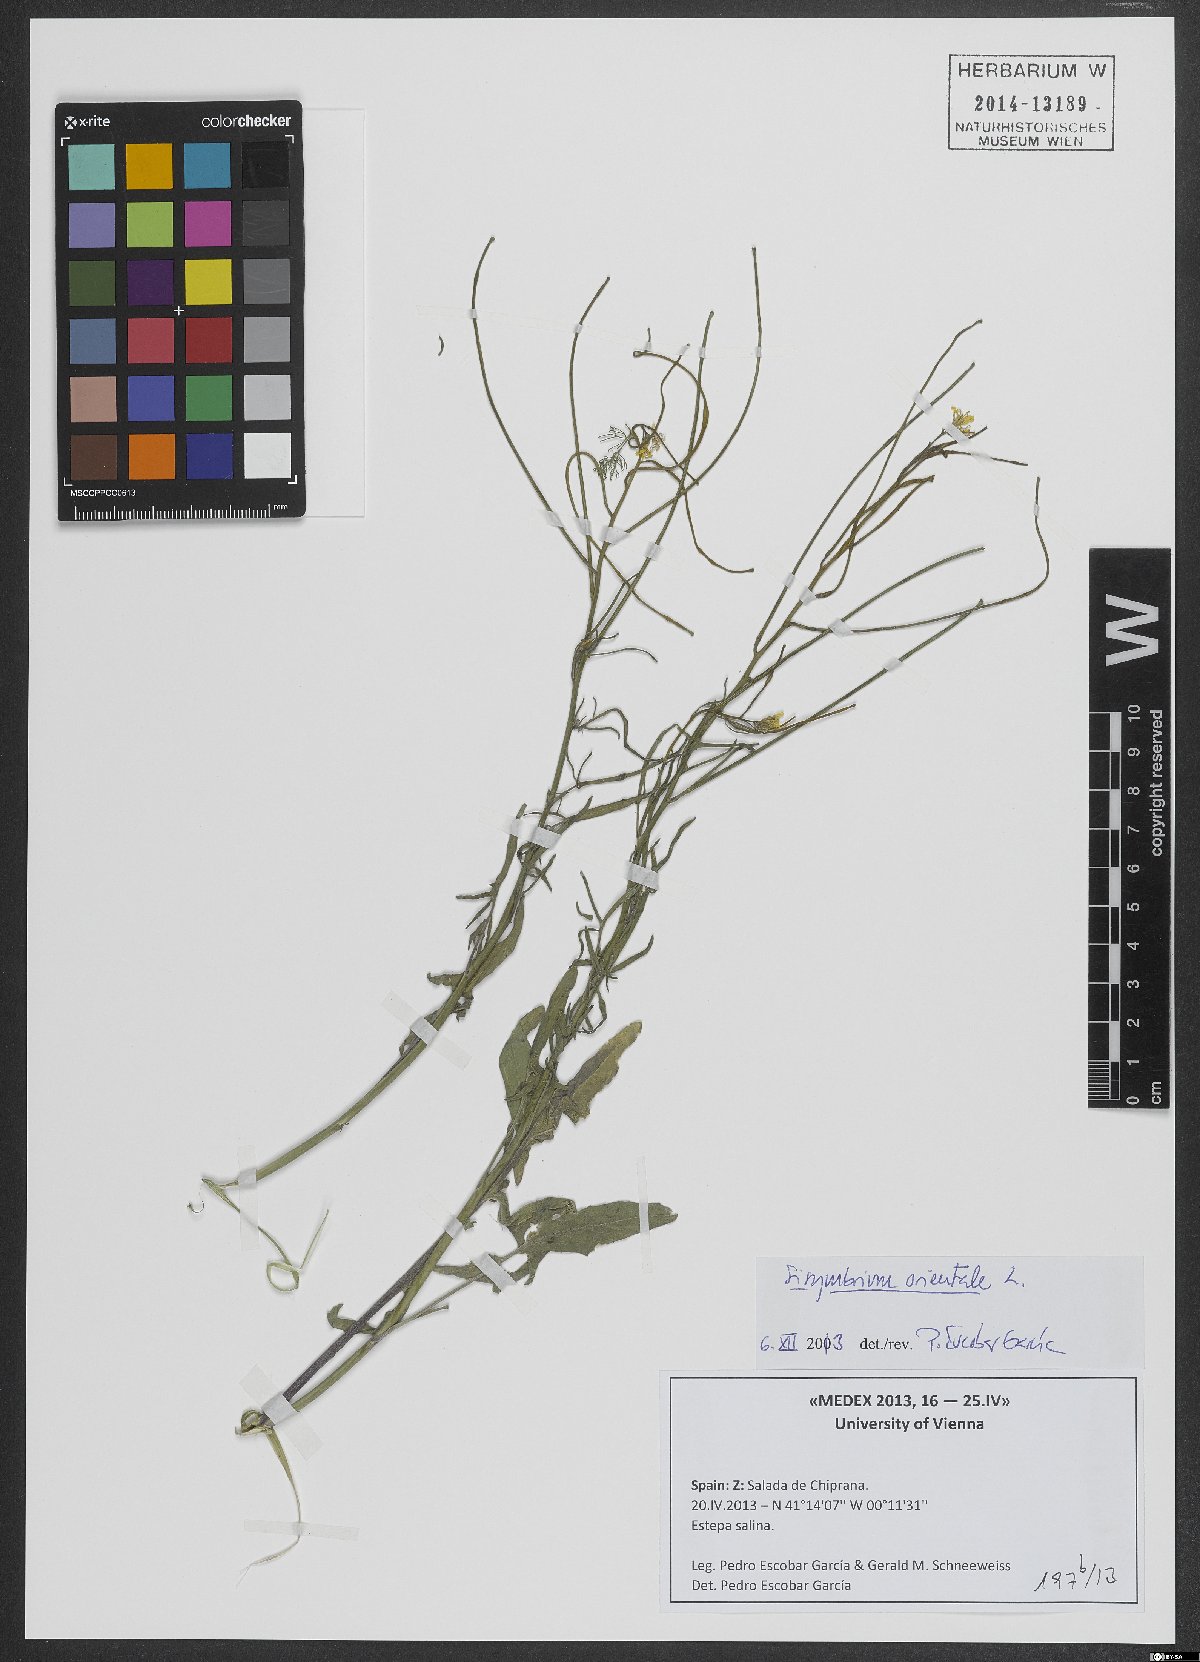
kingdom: Plantae
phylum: Tracheophyta
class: Magnoliopsida
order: Brassicales
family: Brassicaceae
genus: Sisymbrium
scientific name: Sisymbrium orientale
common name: Eastern rocket
